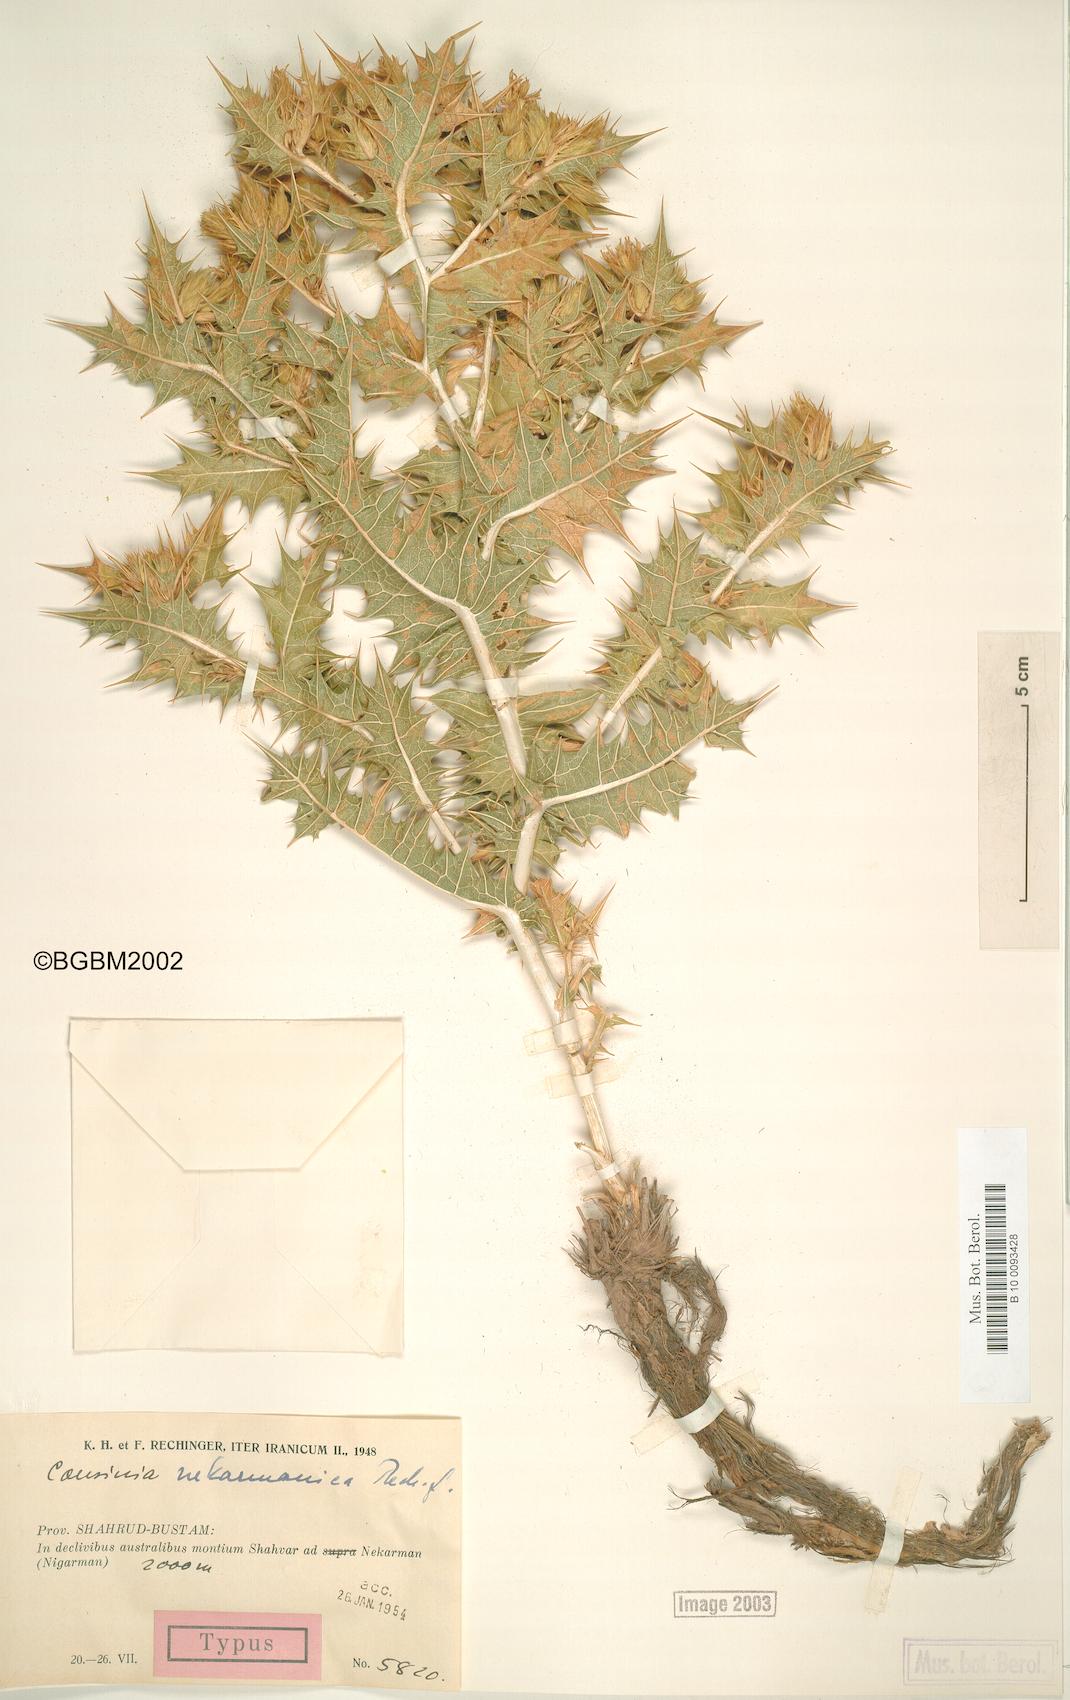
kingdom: Plantae
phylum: Tracheophyta
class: Magnoliopsida
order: Asterales
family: Asteraceae
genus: Cousinia
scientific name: Cousinia alexeenkoana
